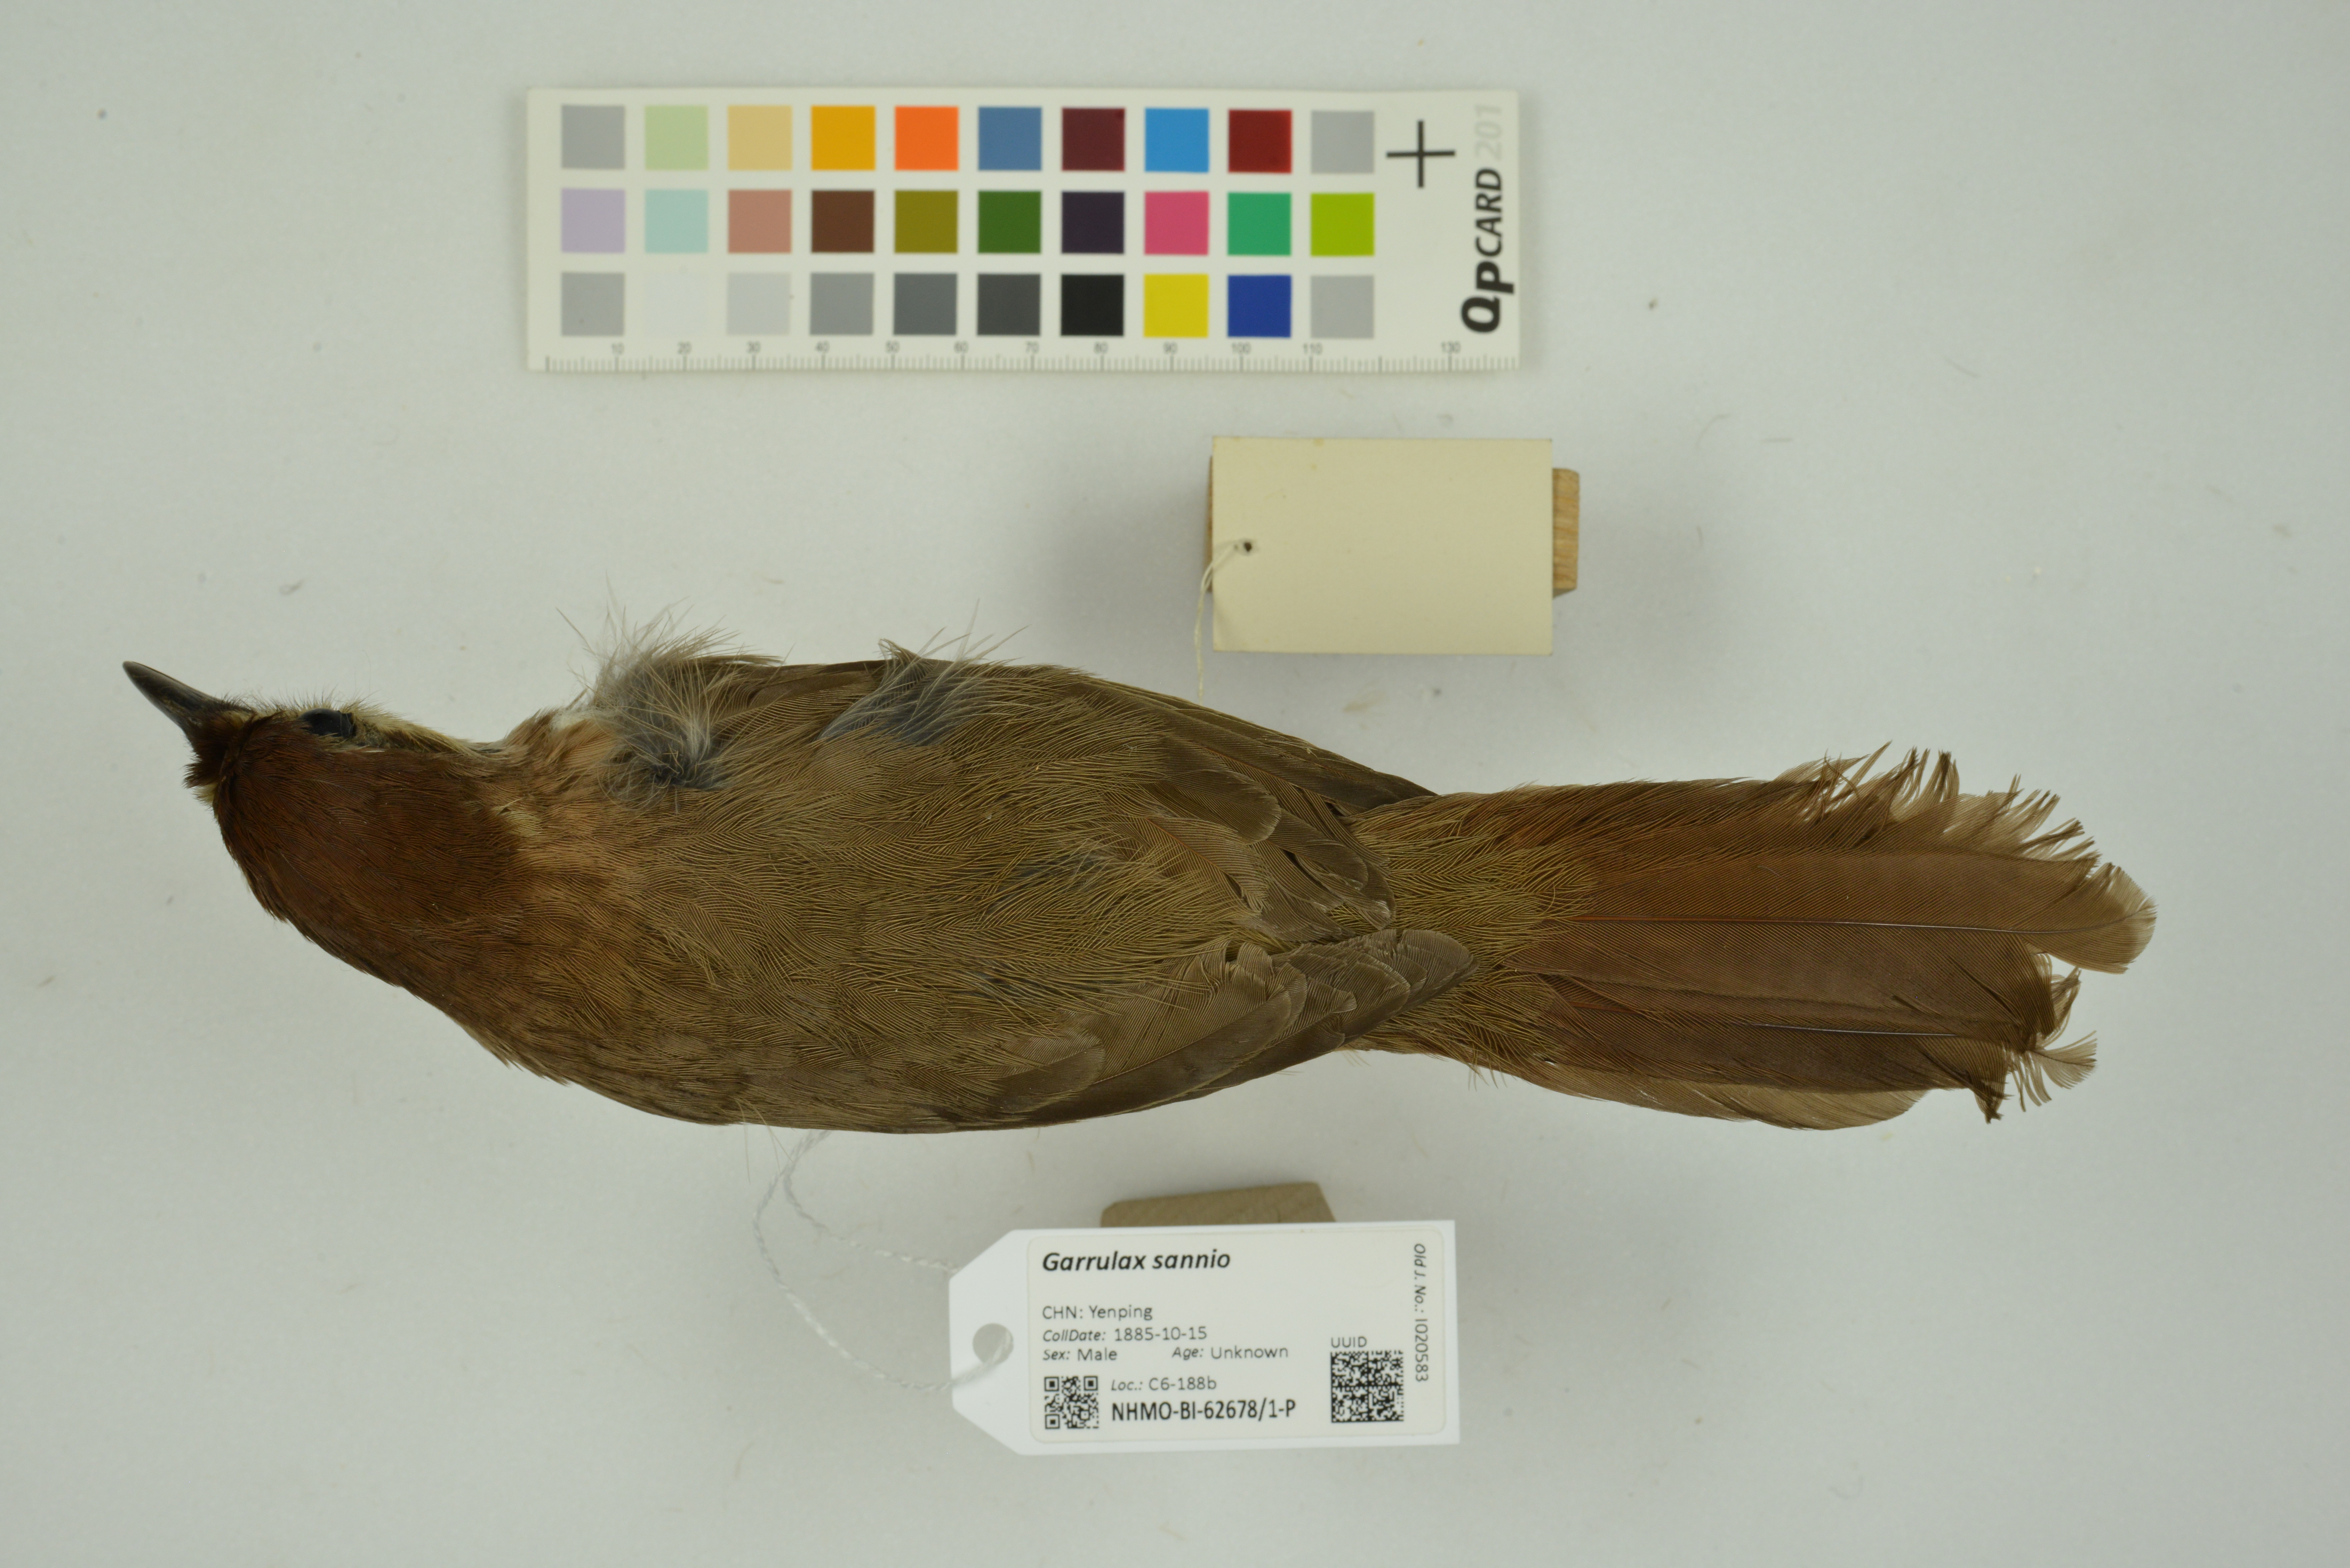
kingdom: Animalia
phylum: Chordata
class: Aves
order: Passeriformes
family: Leiothrichidae
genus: Pterorhinus
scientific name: Pterorhinus sannio
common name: White-browed laughingthrush
